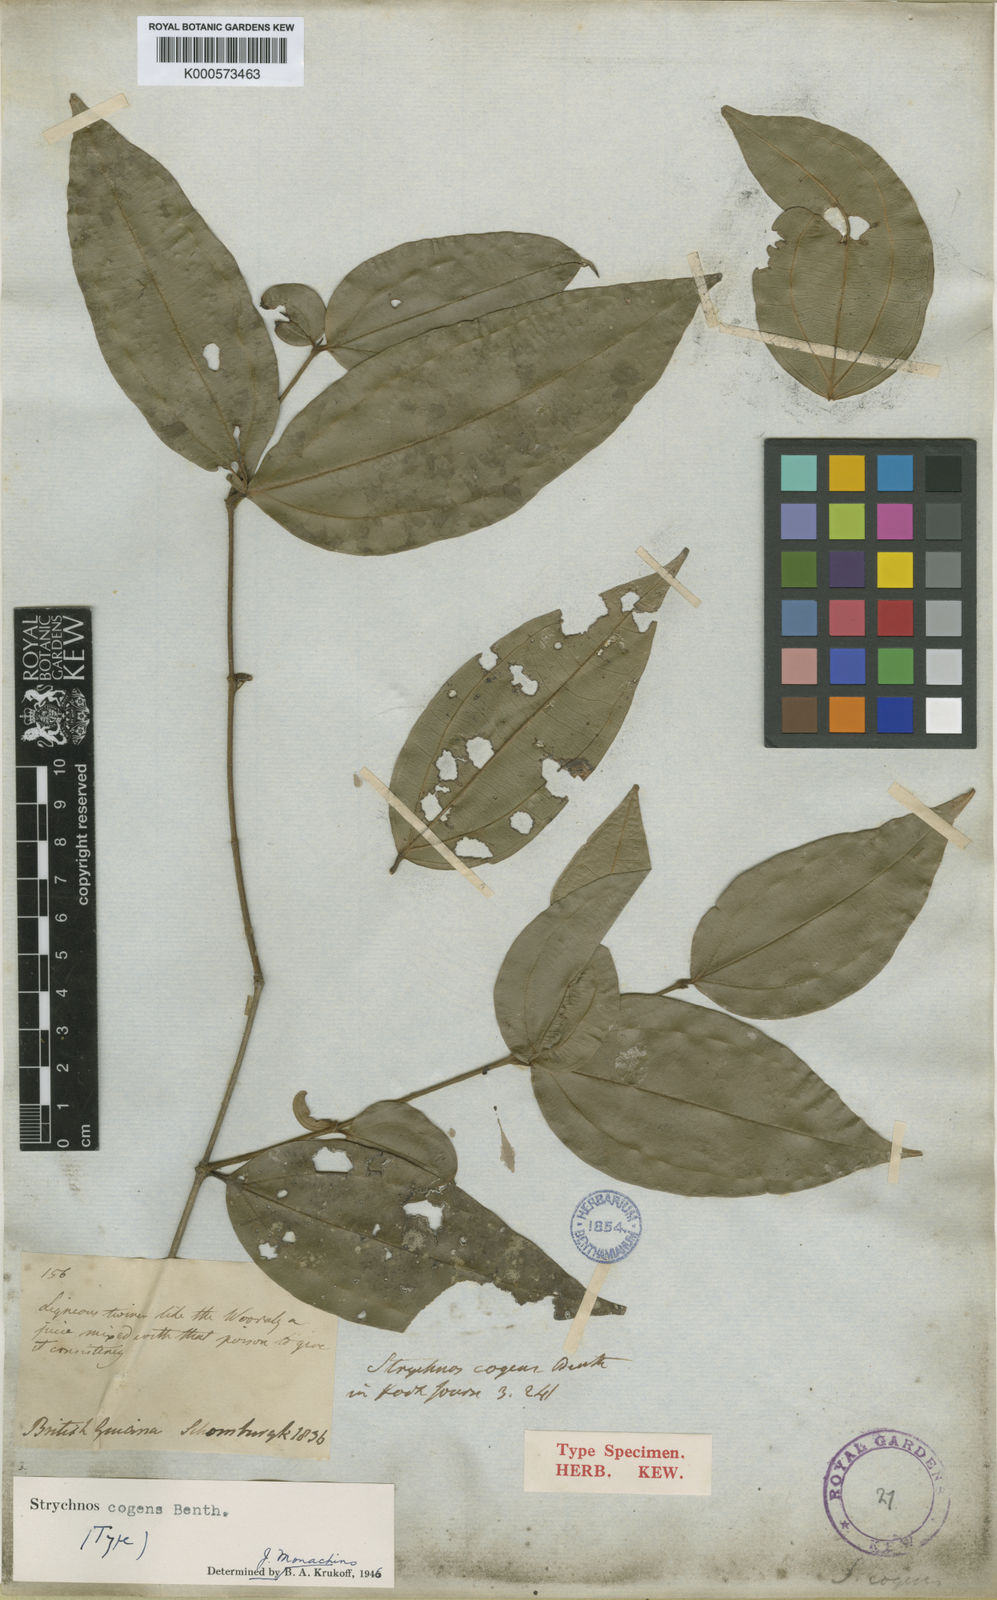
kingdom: Plantae
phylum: Tracheophyta
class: Magnoliopsida
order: Gentianales
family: Loganiaceae
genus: Strychnos
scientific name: Strychnos cogens
